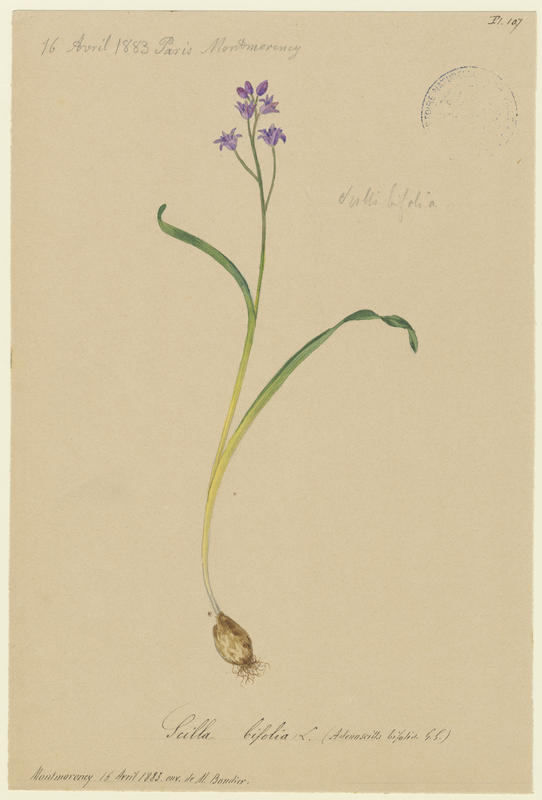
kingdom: Plantae
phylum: Tracheophyta
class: Liliopsida
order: Asparagales
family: Asparagaceae
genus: Scilla
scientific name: Scilla bifolia
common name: Alpine squill
